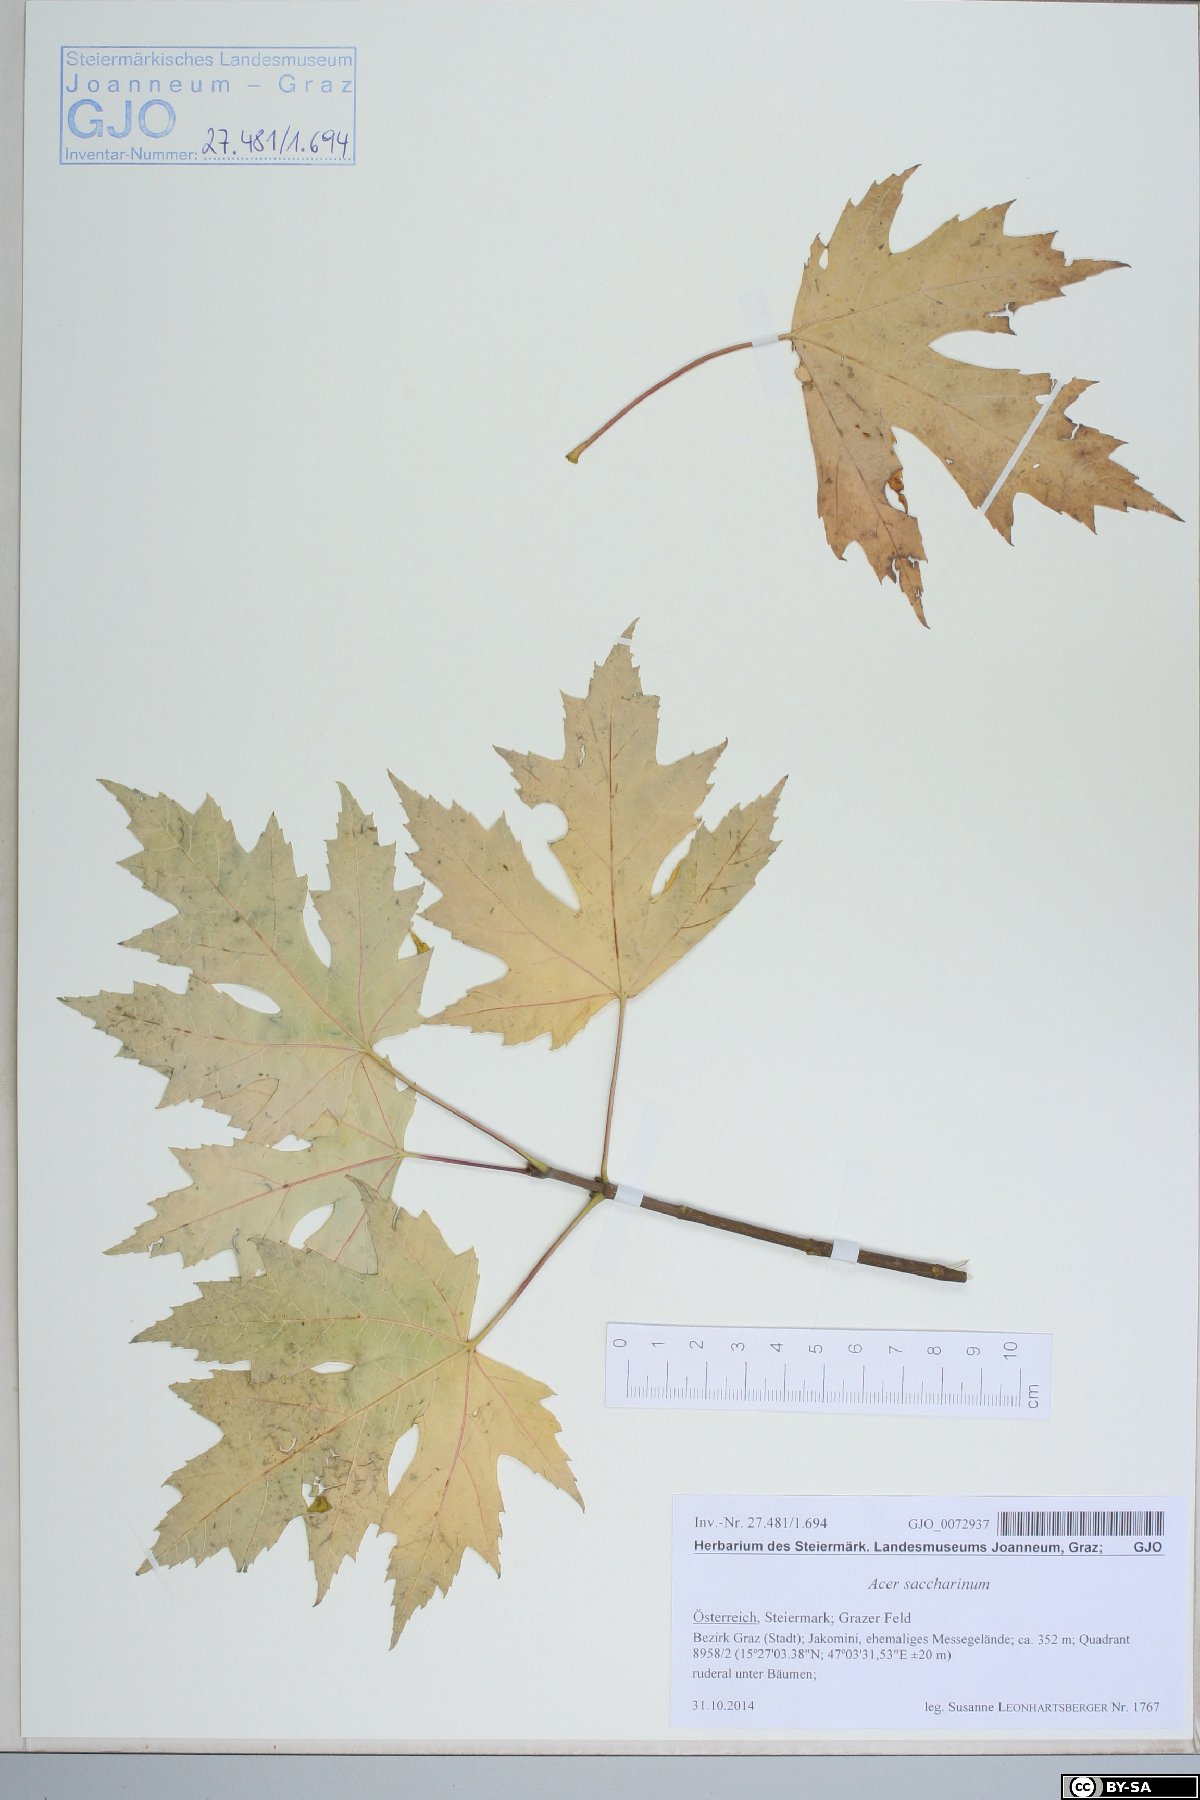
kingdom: Plantae
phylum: Tracheophyta
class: Magnoliopsida
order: Sapindales
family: Sapindaceae
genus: Acer
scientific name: Acer saccharinum
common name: Silver maple
